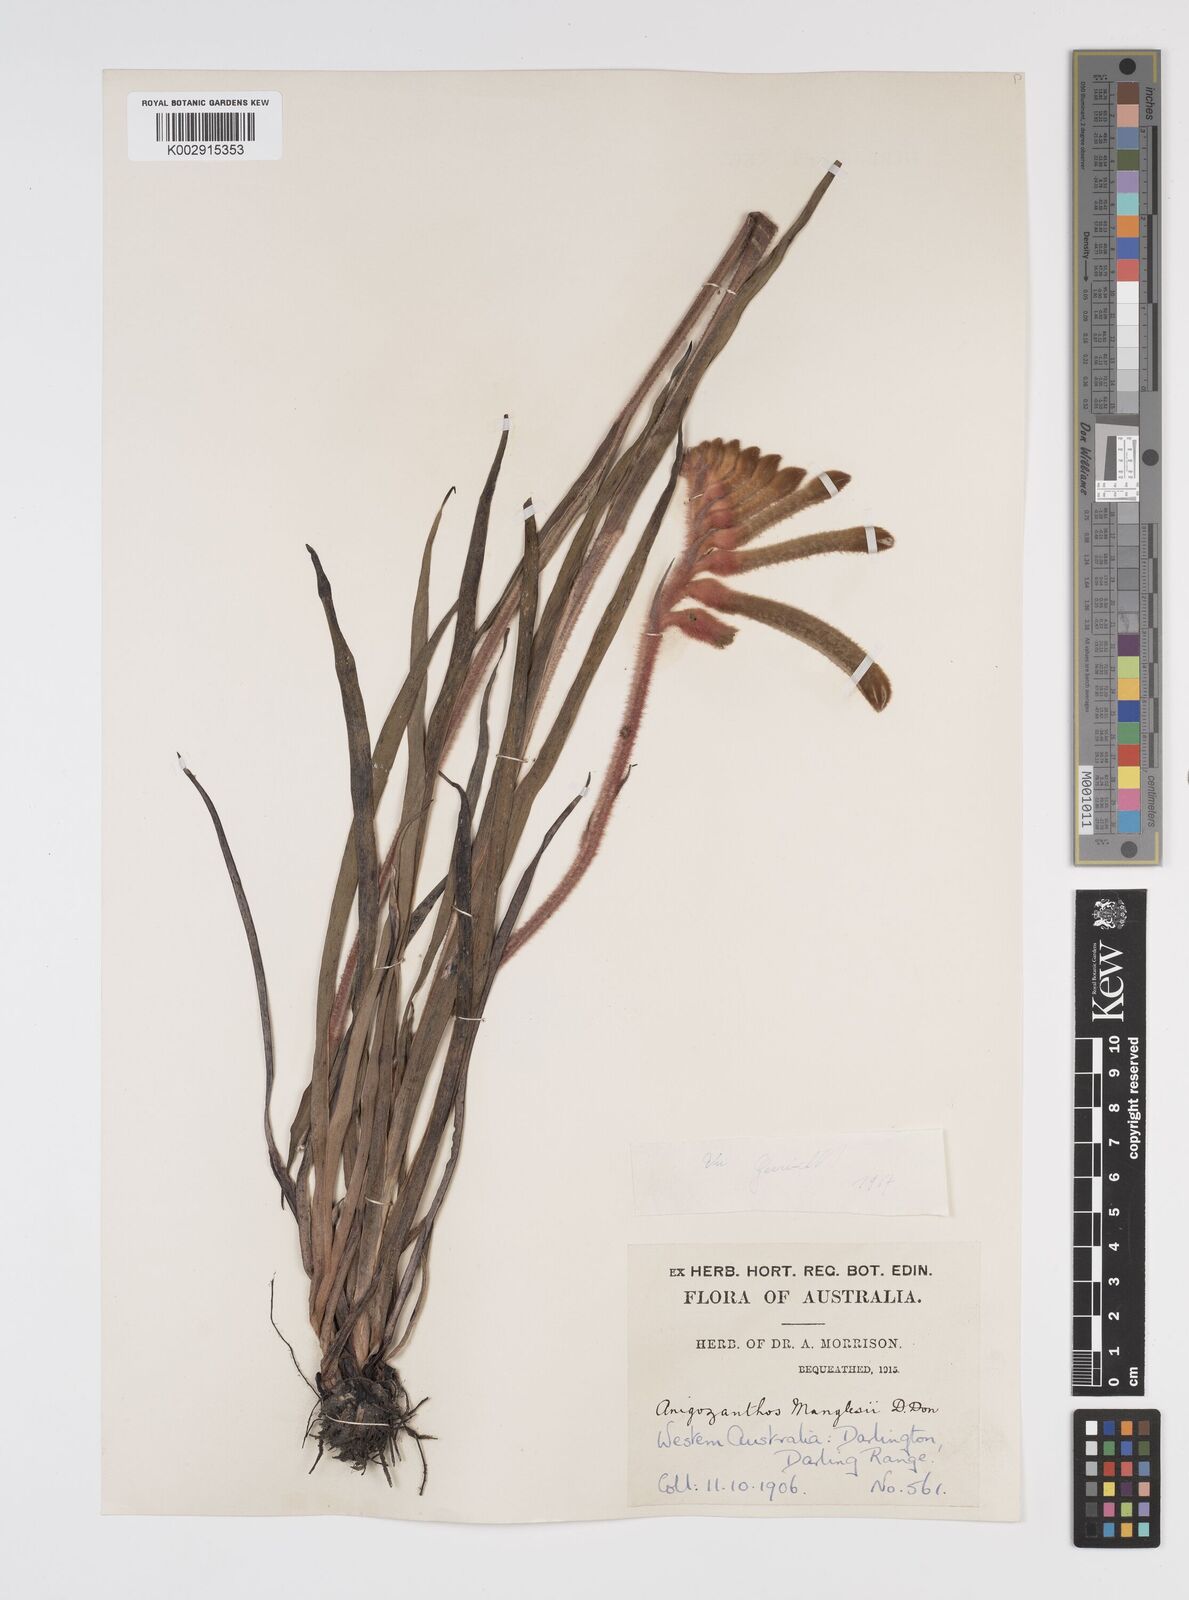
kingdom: Plantae
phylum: Tracheophyta
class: Liliopsida
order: Commelinales
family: Haemodoraceae
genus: Anigozanthos
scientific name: Anigozanthos manglesii
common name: Mangles's kangaroo-paw
